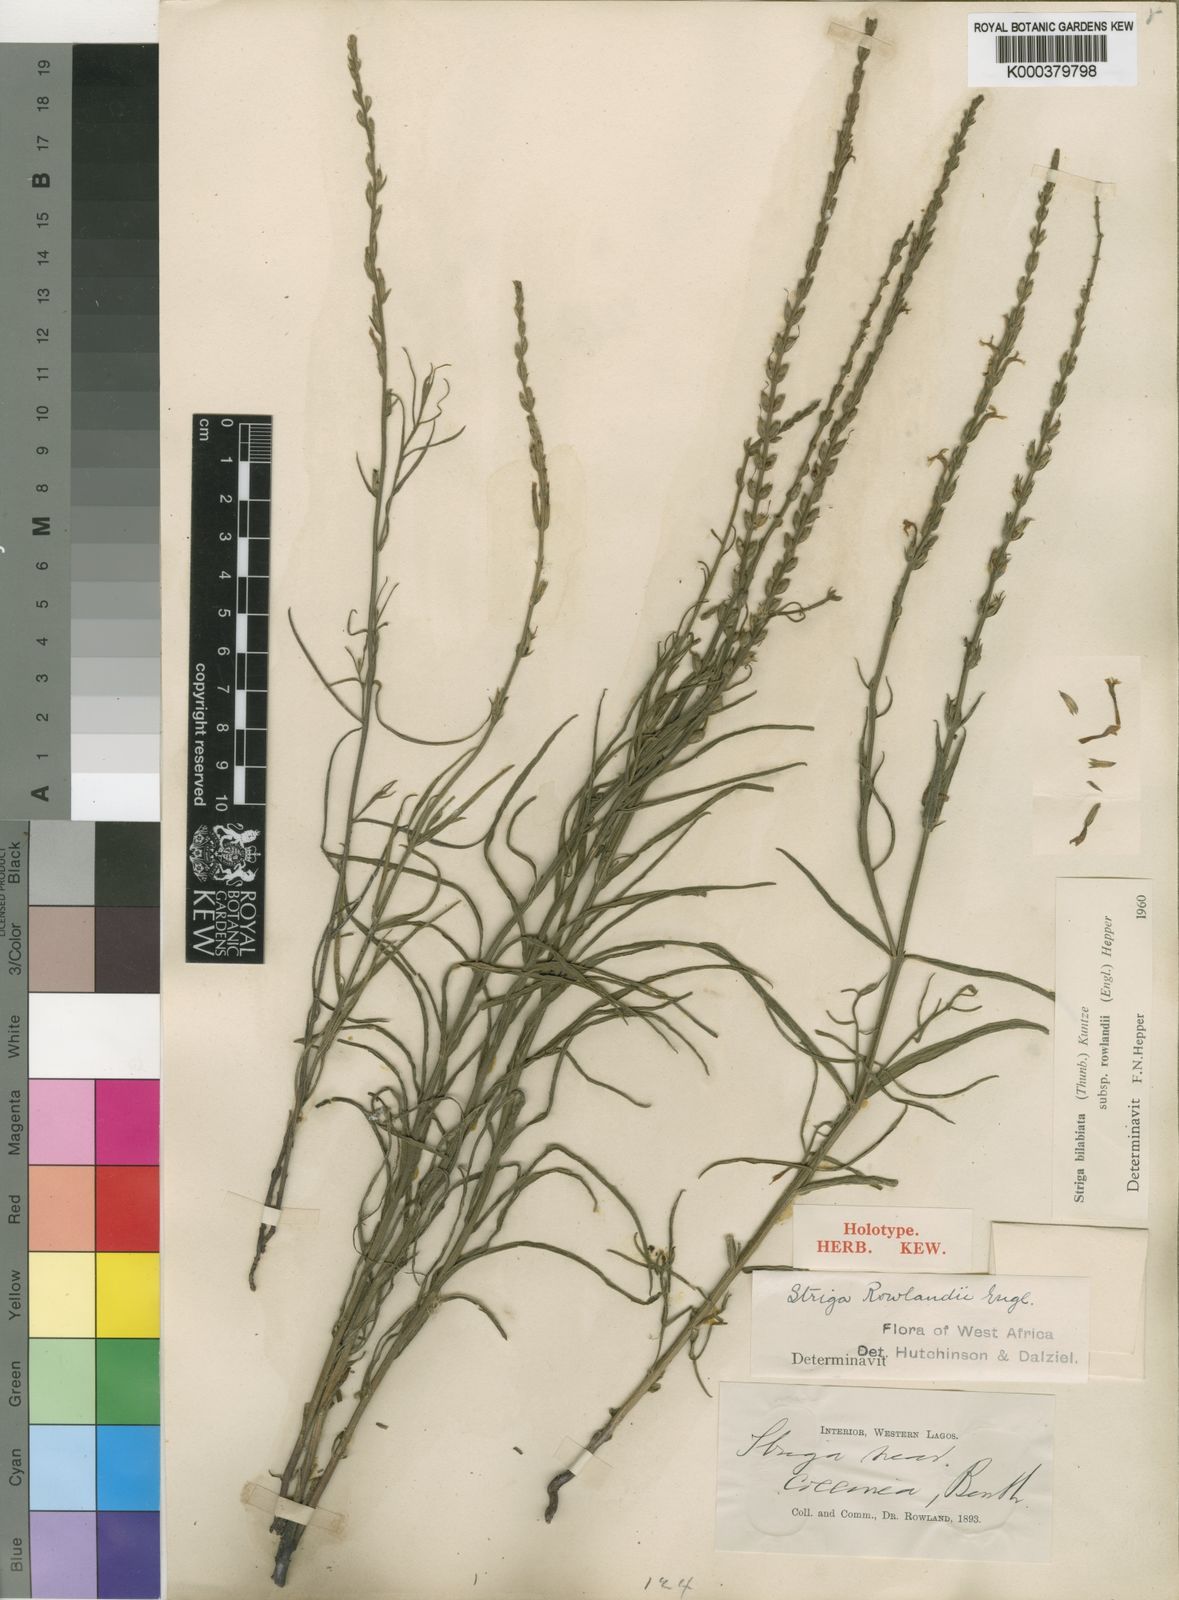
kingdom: Plantae
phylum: Tracheophyta
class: Magnoliopsida
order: Lamiales
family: Orobanchaceae
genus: Striga
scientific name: Striga bilabiata
